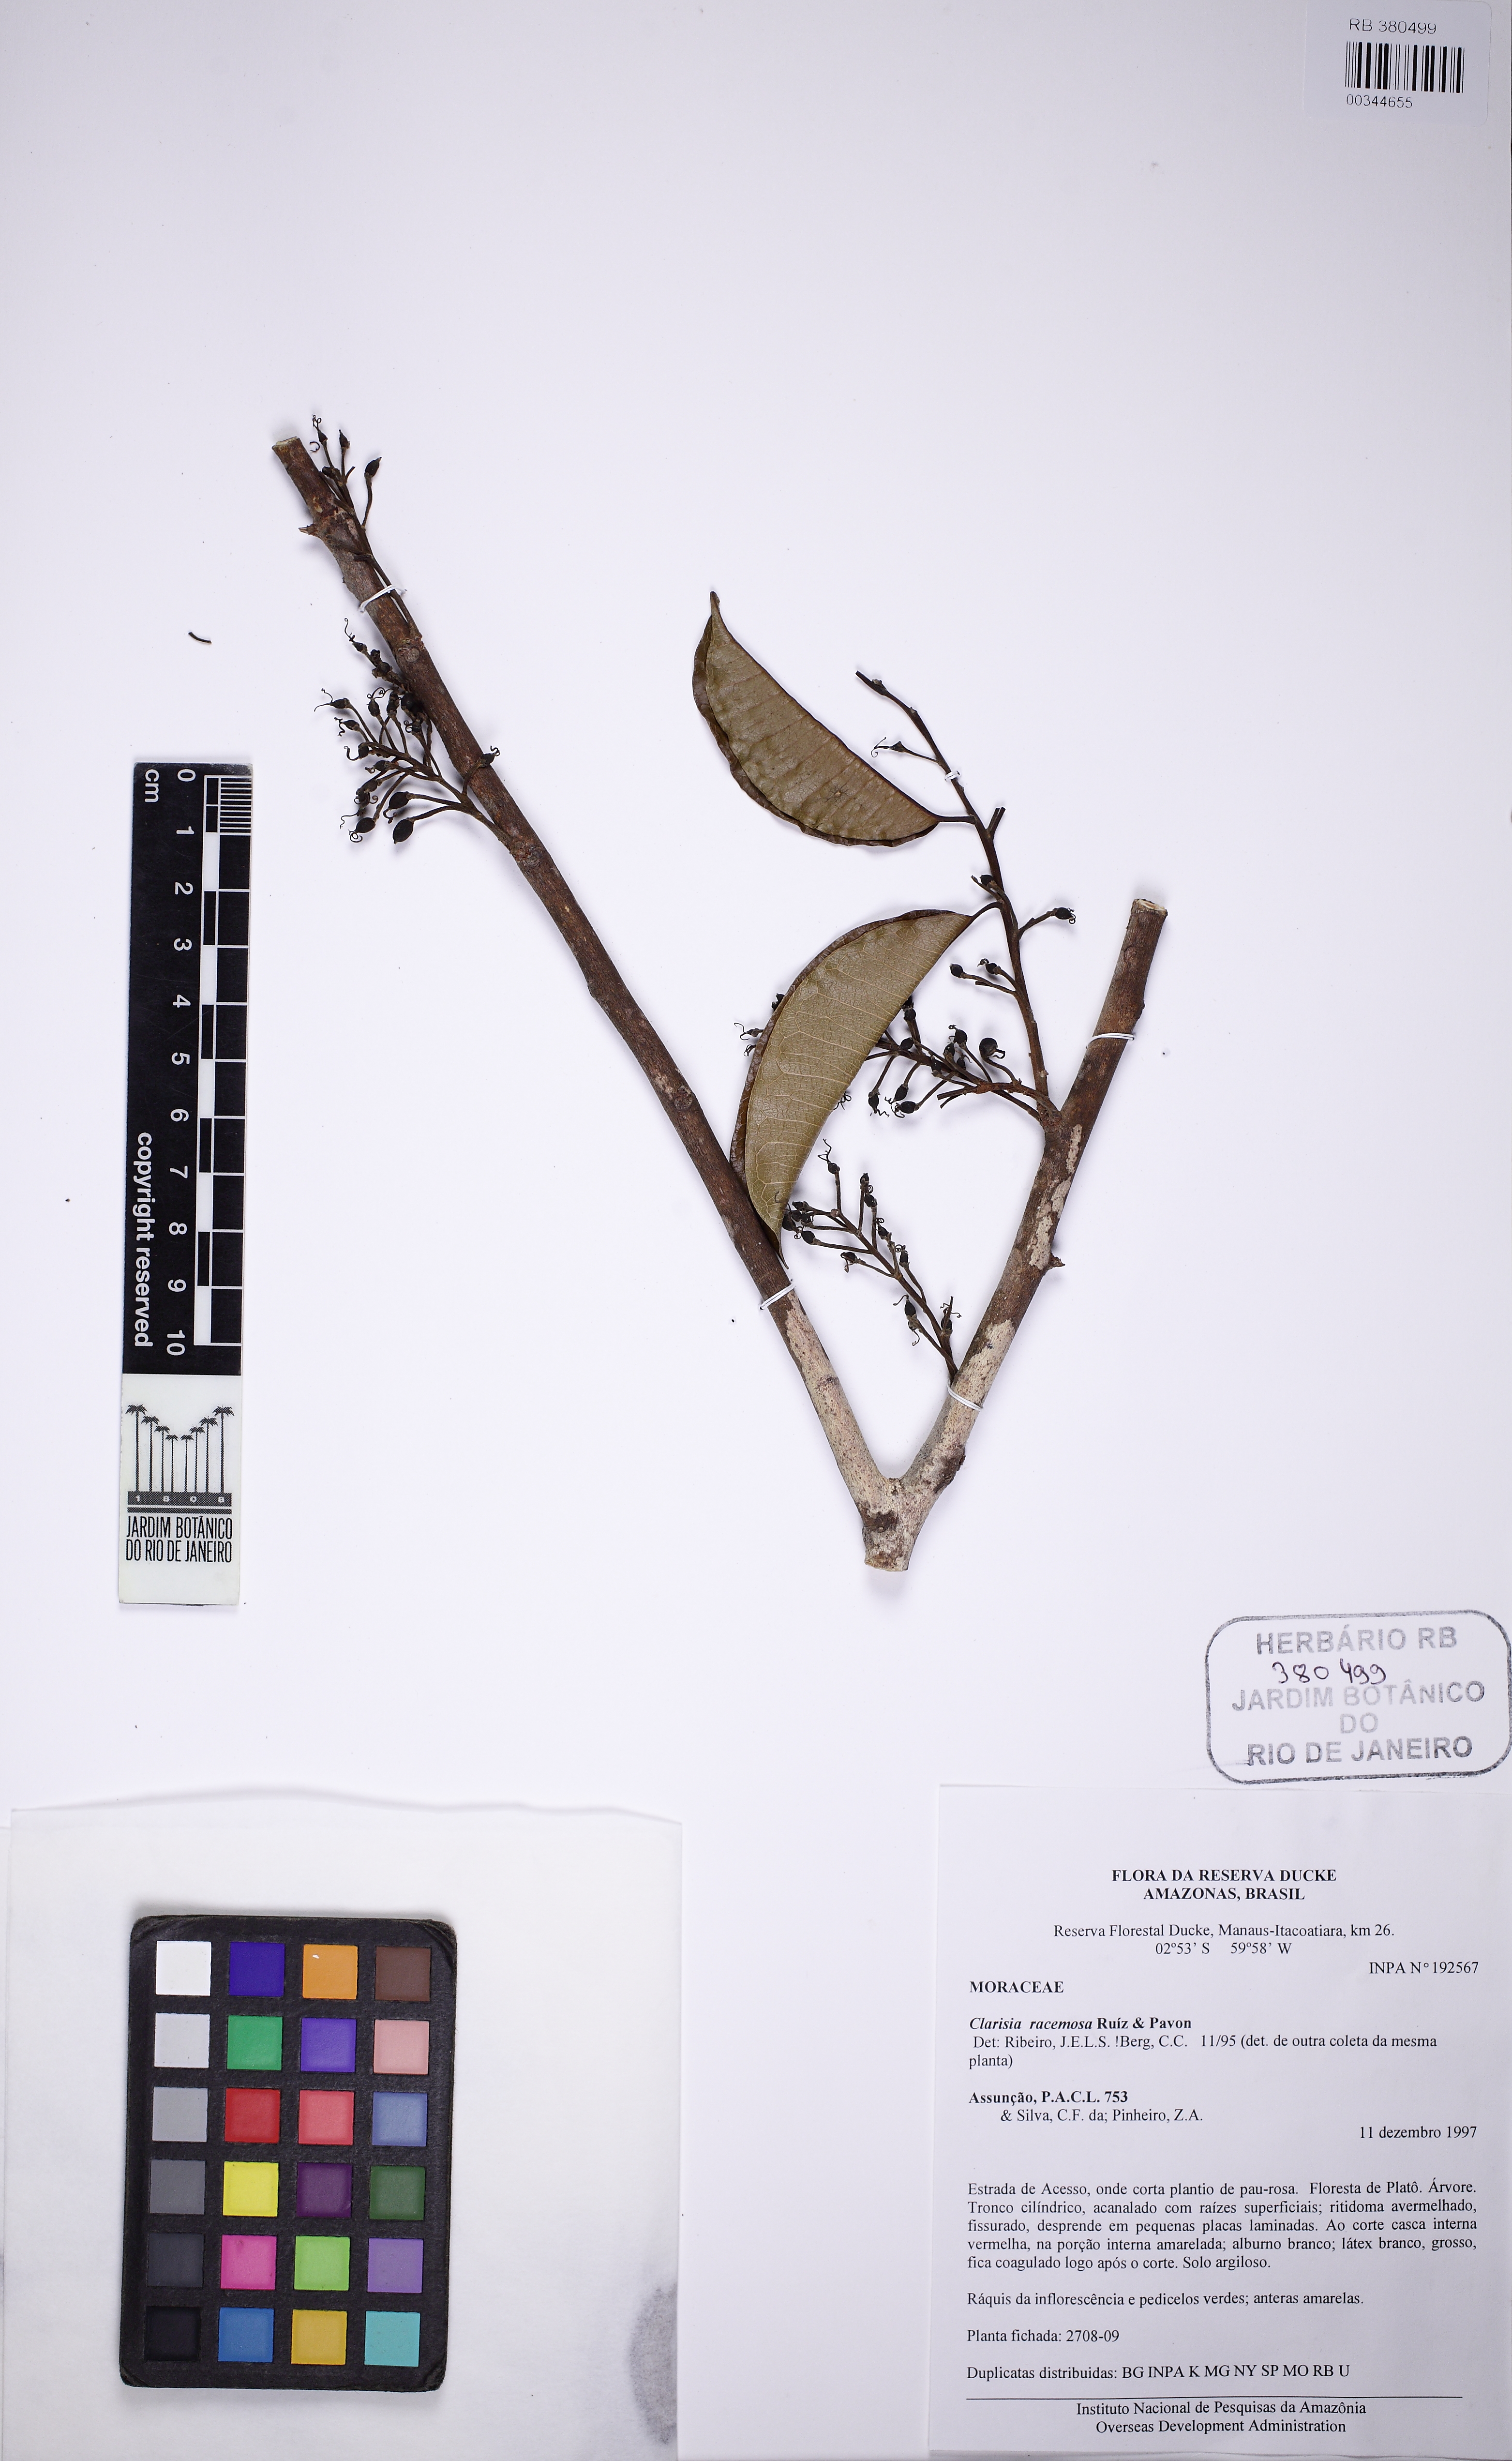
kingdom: Plantae
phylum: Tracheophyta
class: Magnoliopsida
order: Rosales
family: Moraceae
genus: Clarisia
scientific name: Clarisia racemosa
